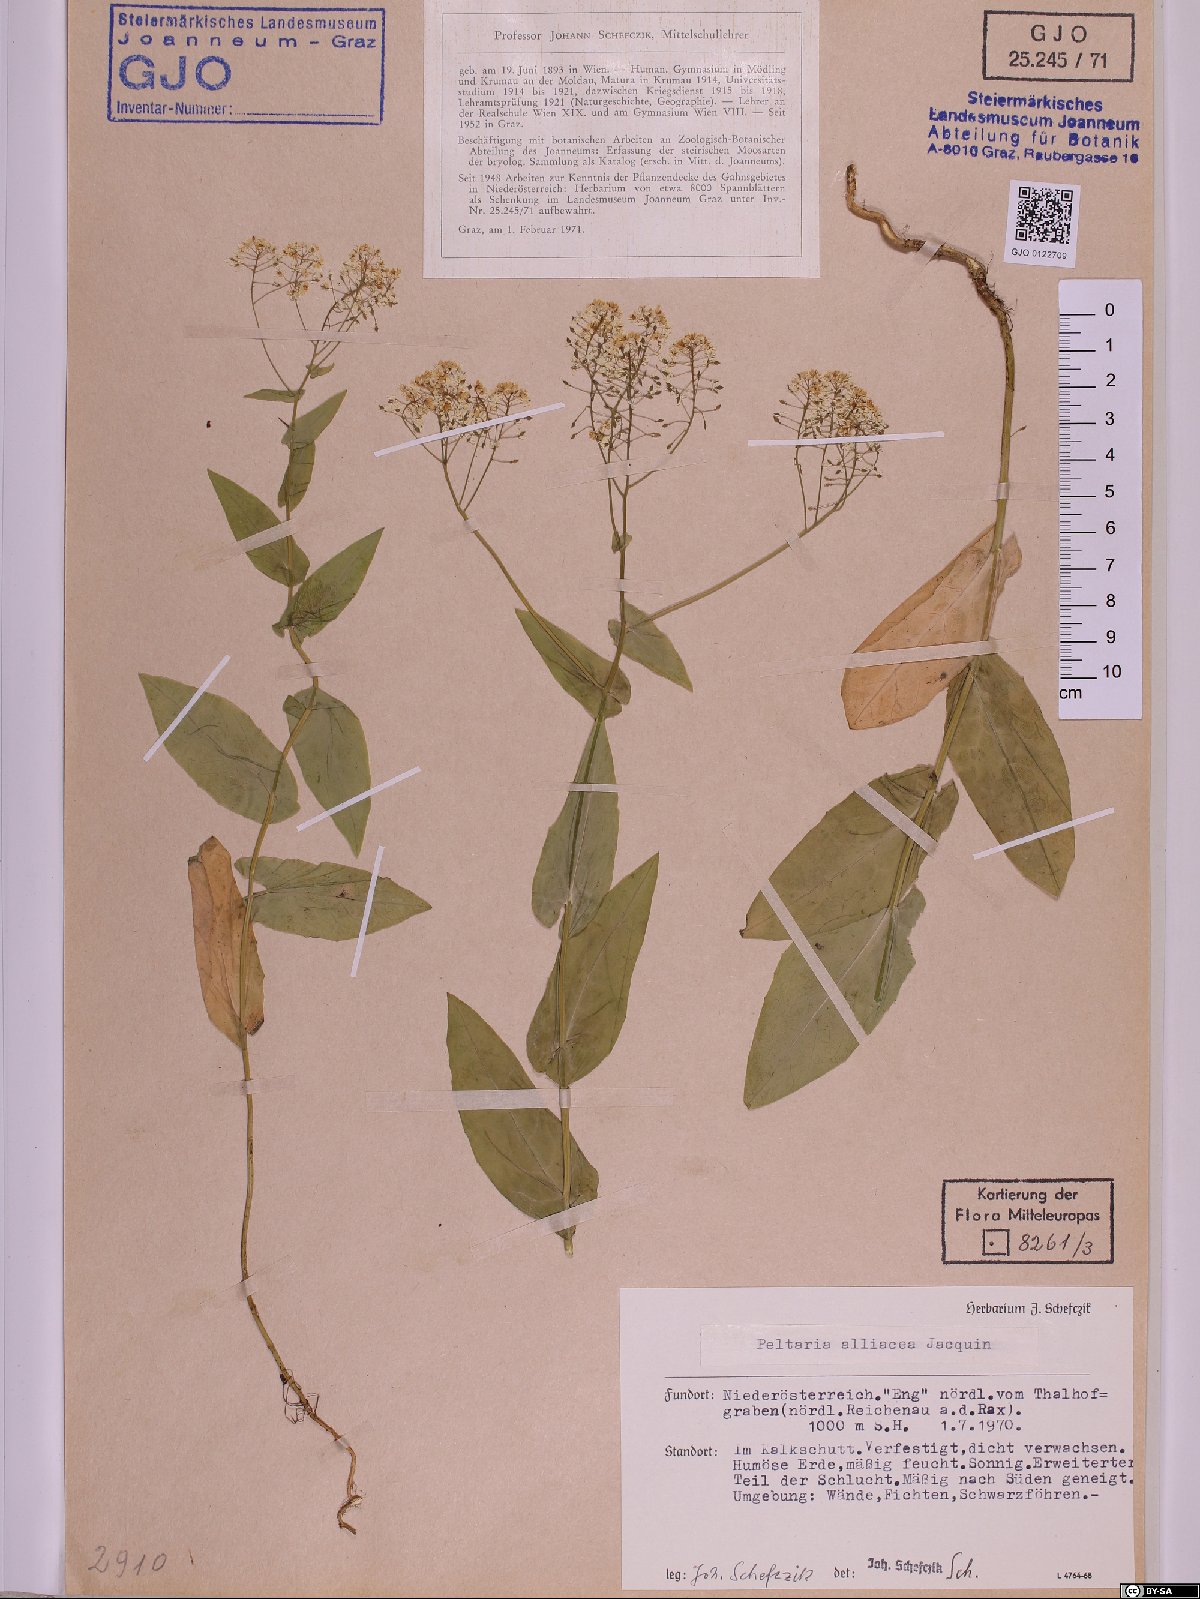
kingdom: Plantae
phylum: Tracheophyta
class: Magnoliopsida
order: Brassicales
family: Brassicaceae
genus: Peltaria
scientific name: Peltaria alliacea
